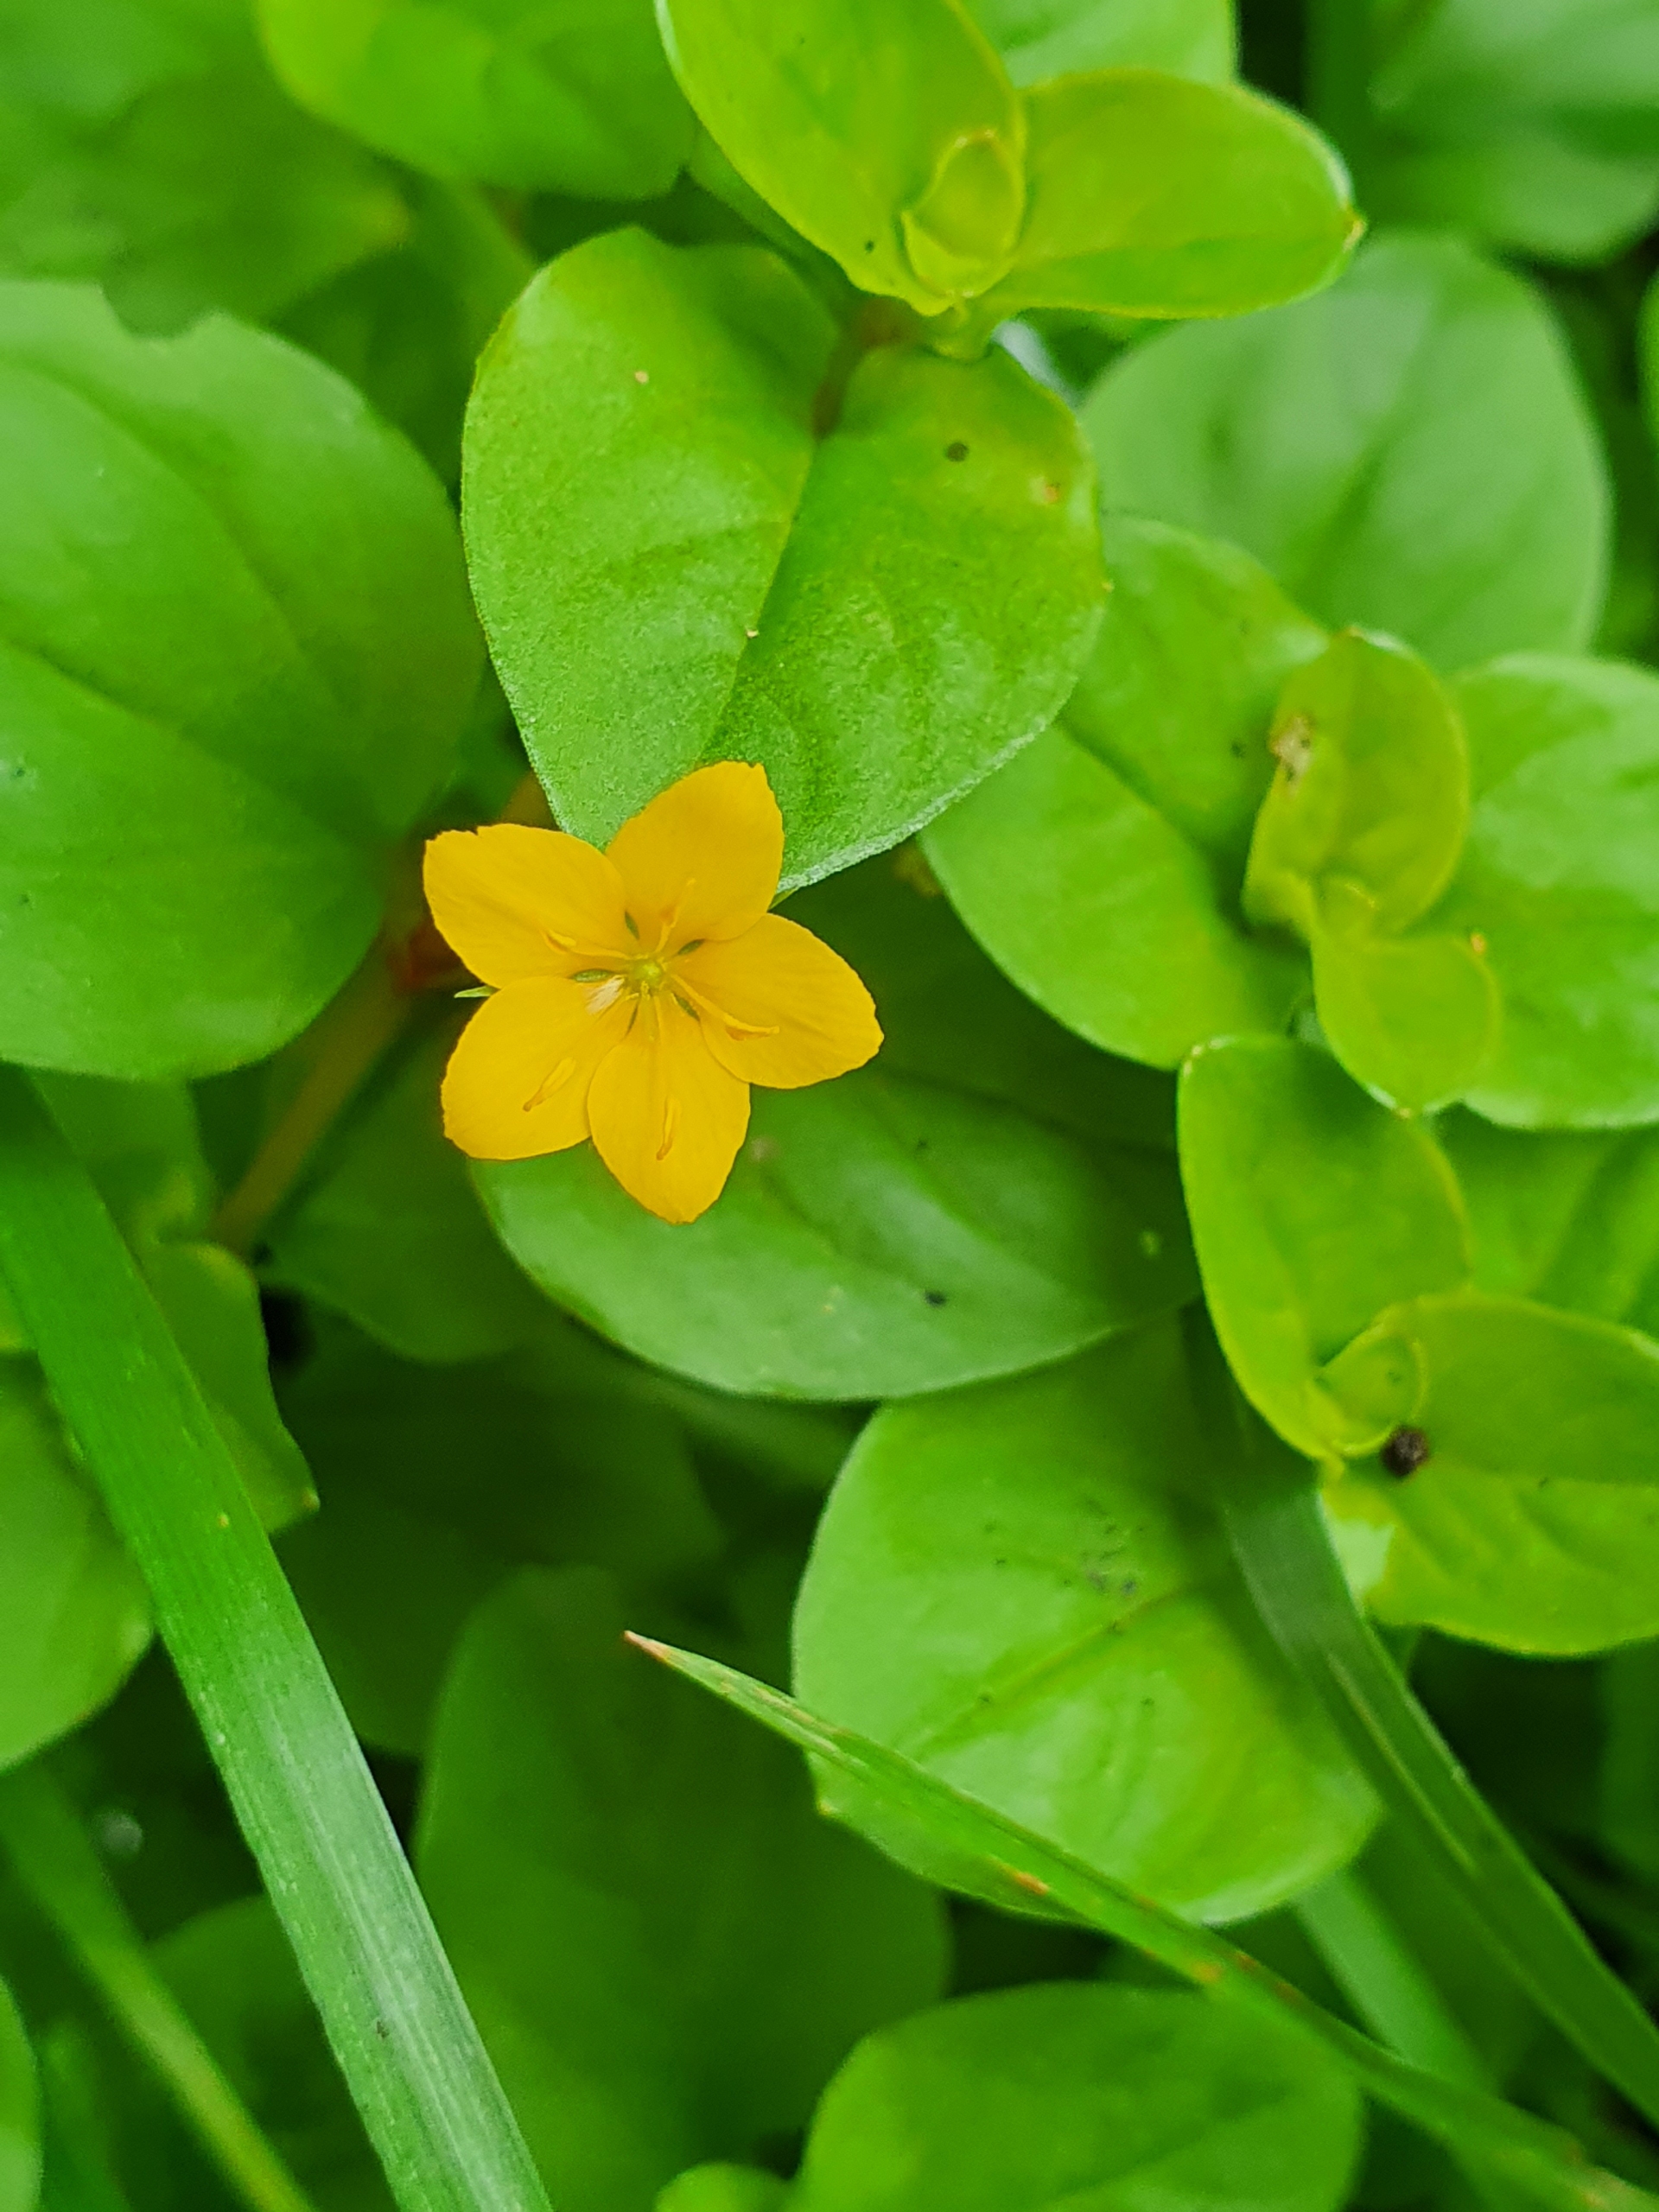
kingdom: Plantae
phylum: Tracheophyta
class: Magnoliopsida
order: Ericales
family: Primulaceae
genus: Lysimachia
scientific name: Lysimachia nemorum
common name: Lund-fredløs
